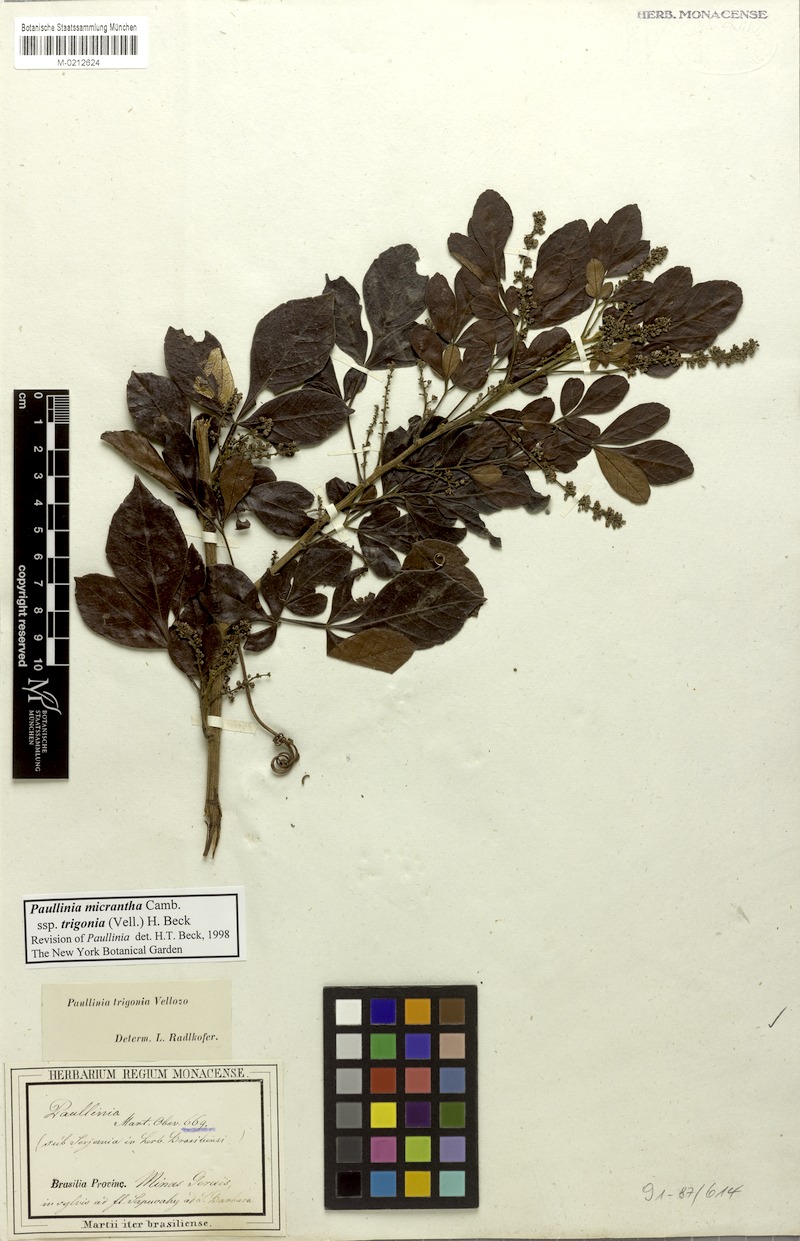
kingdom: Plantae
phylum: Tracheophyta
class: Magnoliopsida
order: Sapindales
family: Sapindaceae
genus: Paullinia
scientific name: Paullinia micrantha
